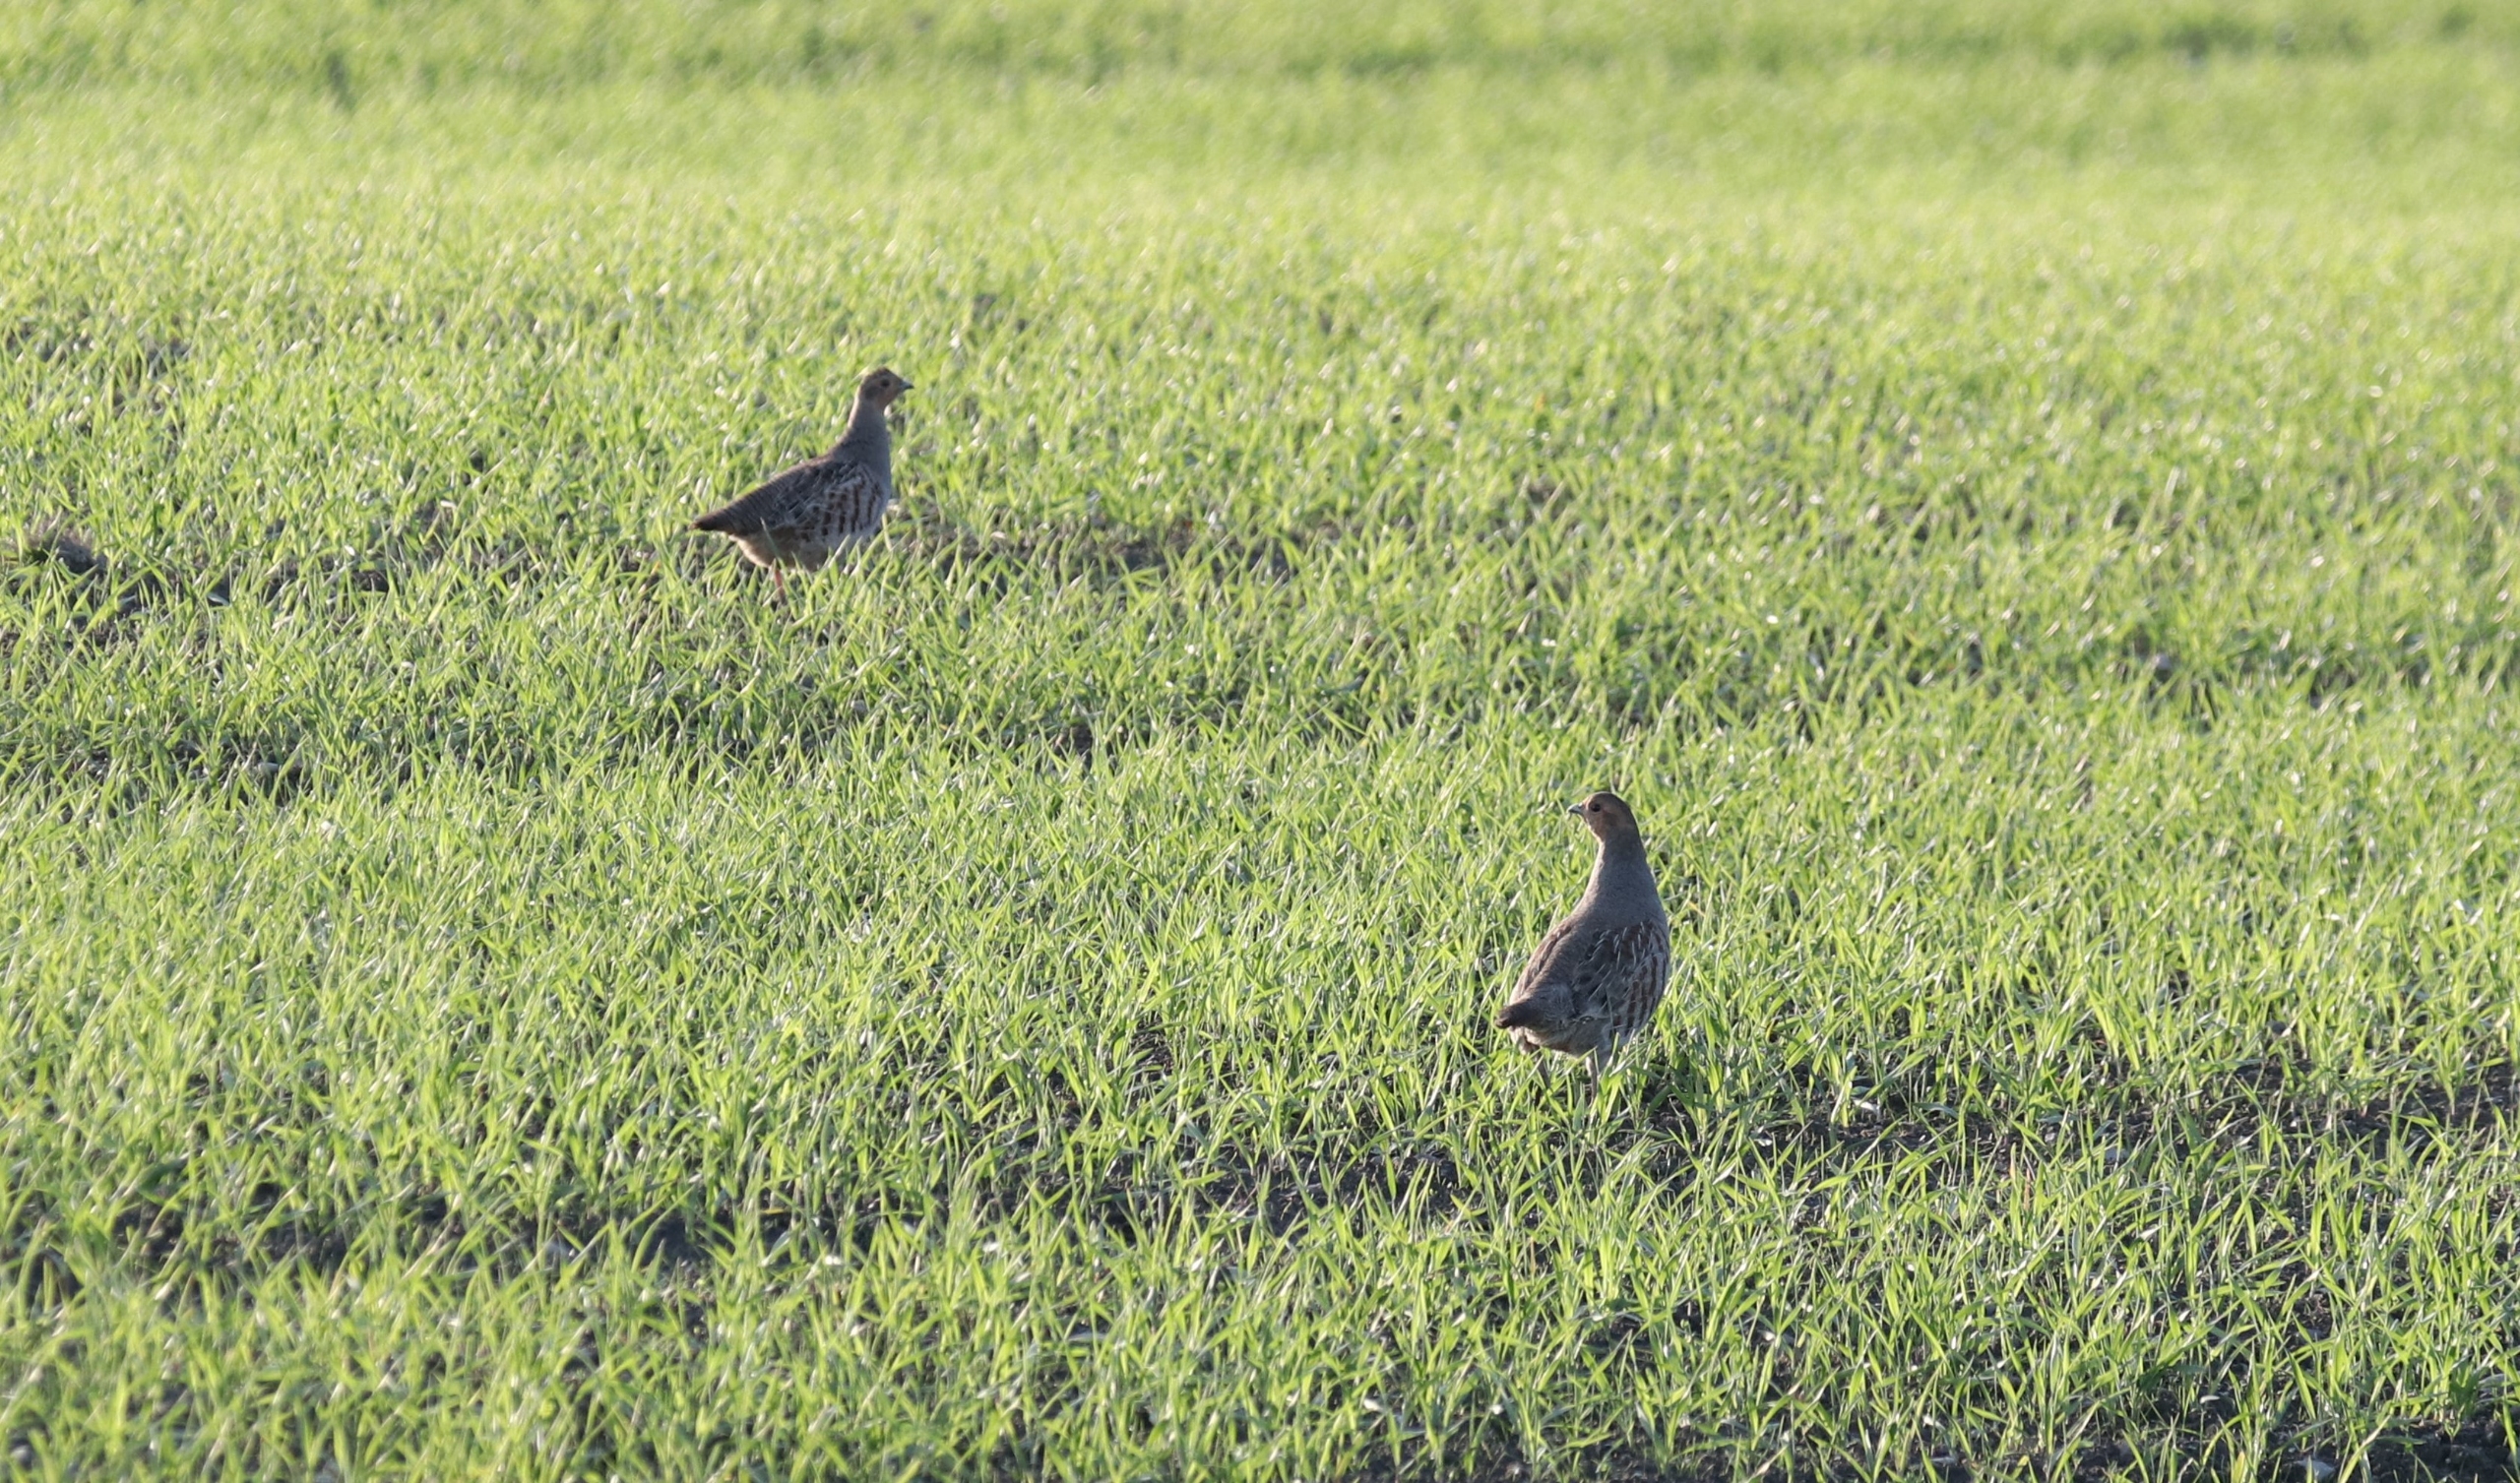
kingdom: Animalia
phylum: Chordata
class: Aves
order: Galliformes
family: Phasianidae
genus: Perdix
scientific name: Perdix perdix
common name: Agerhøne
